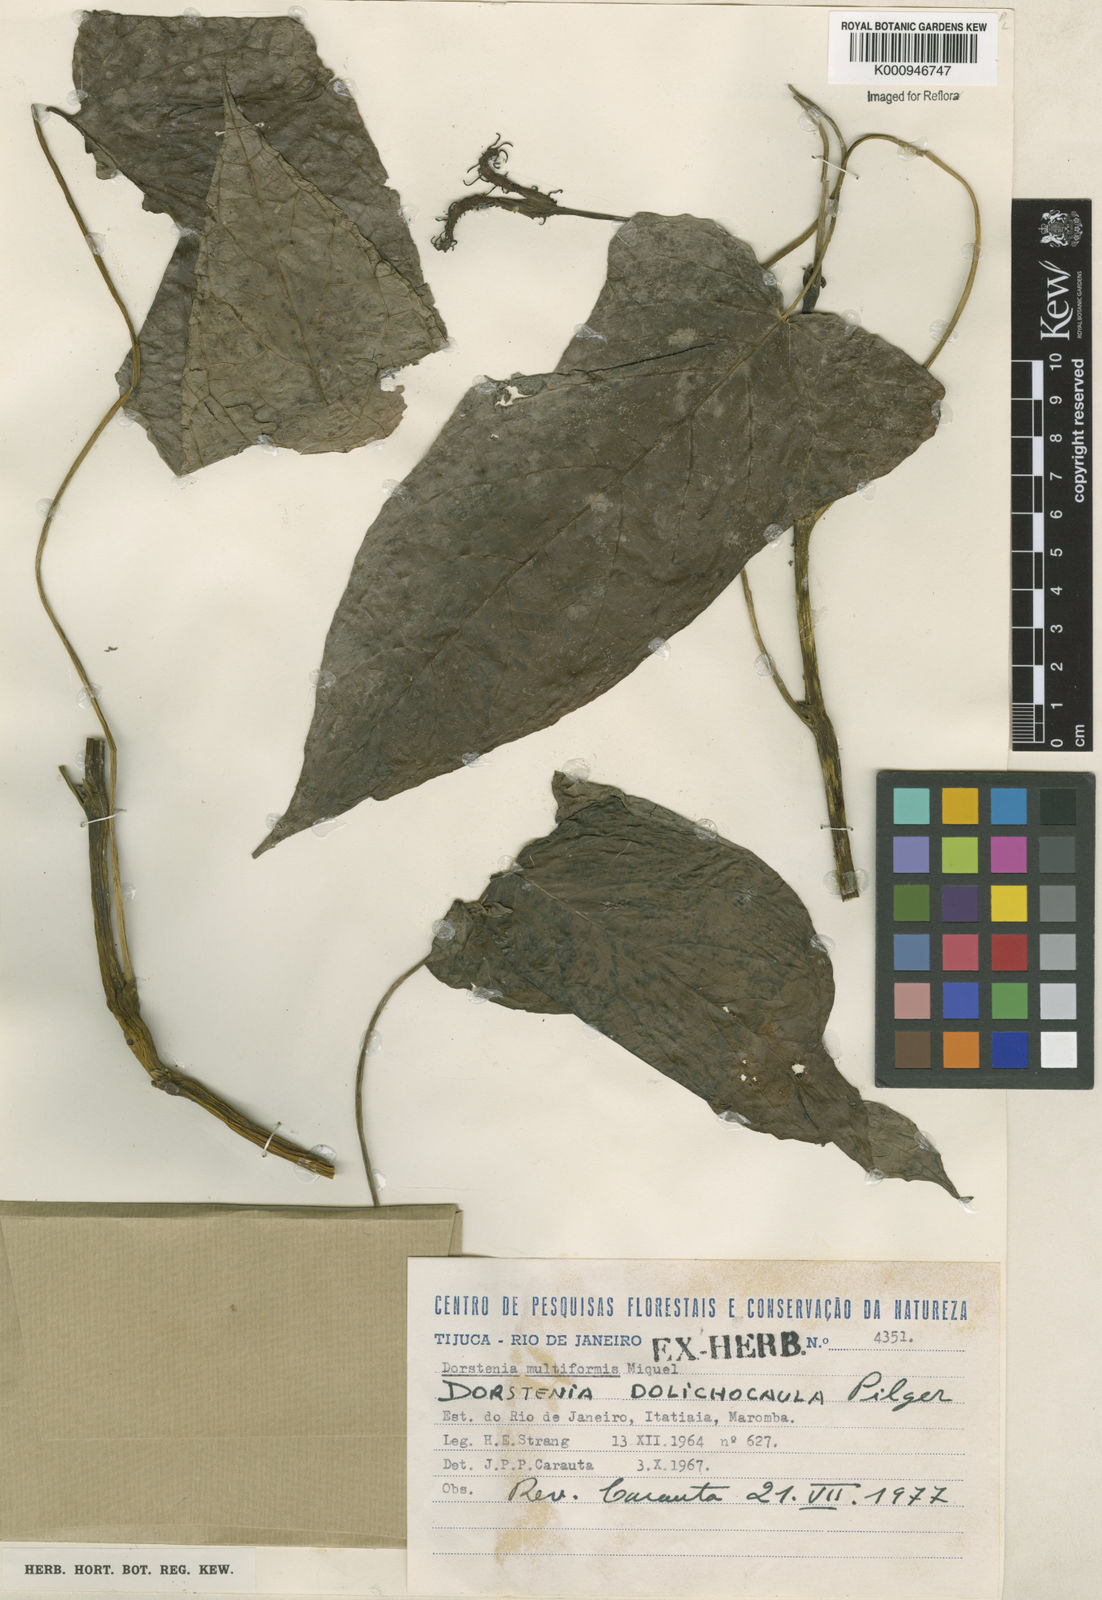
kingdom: Plantae
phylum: Tracheophyta
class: Magnoliopsida
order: Rosales
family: Moraceae
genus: Dorstenia
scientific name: Dorstenia ramosa
